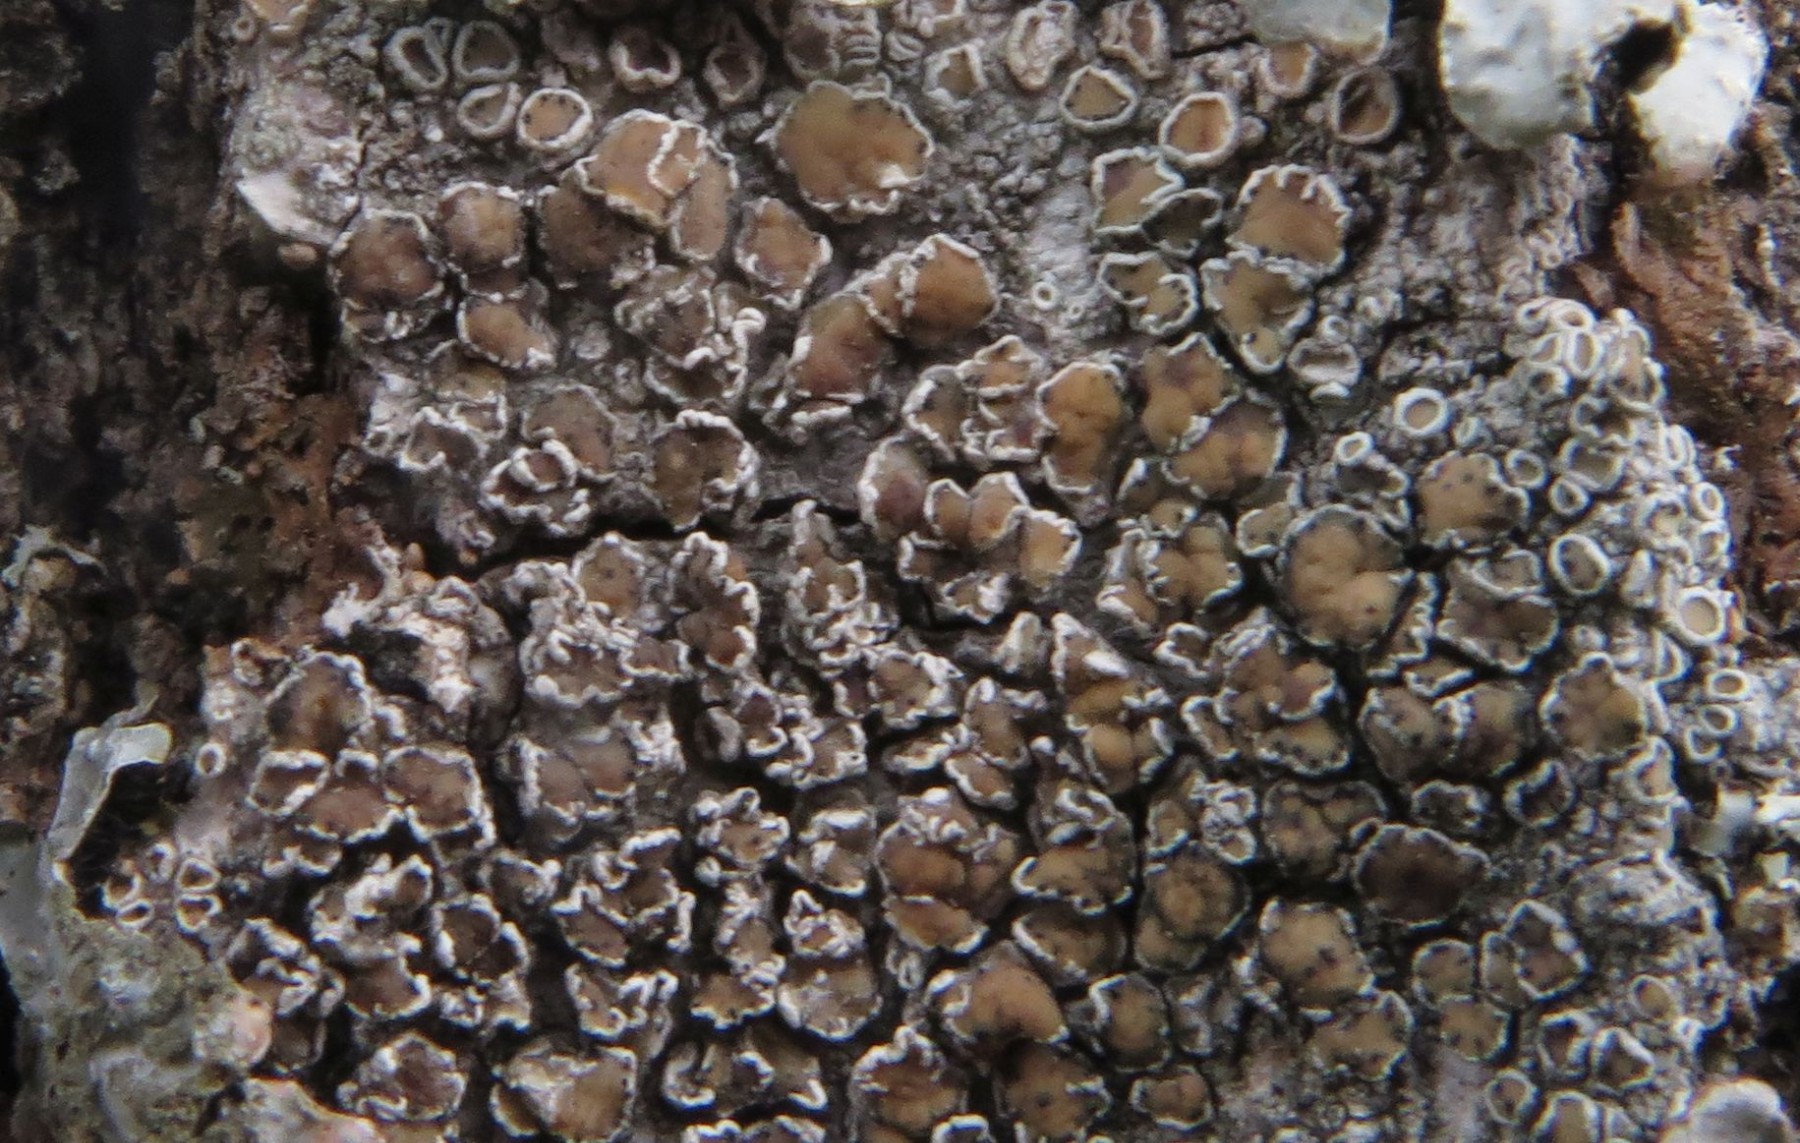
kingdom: Fungi
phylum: Ascomycota
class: Dothideomycetes
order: Pleosporales
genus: Vouauxiella
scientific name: Vouauxiella lichenicola
